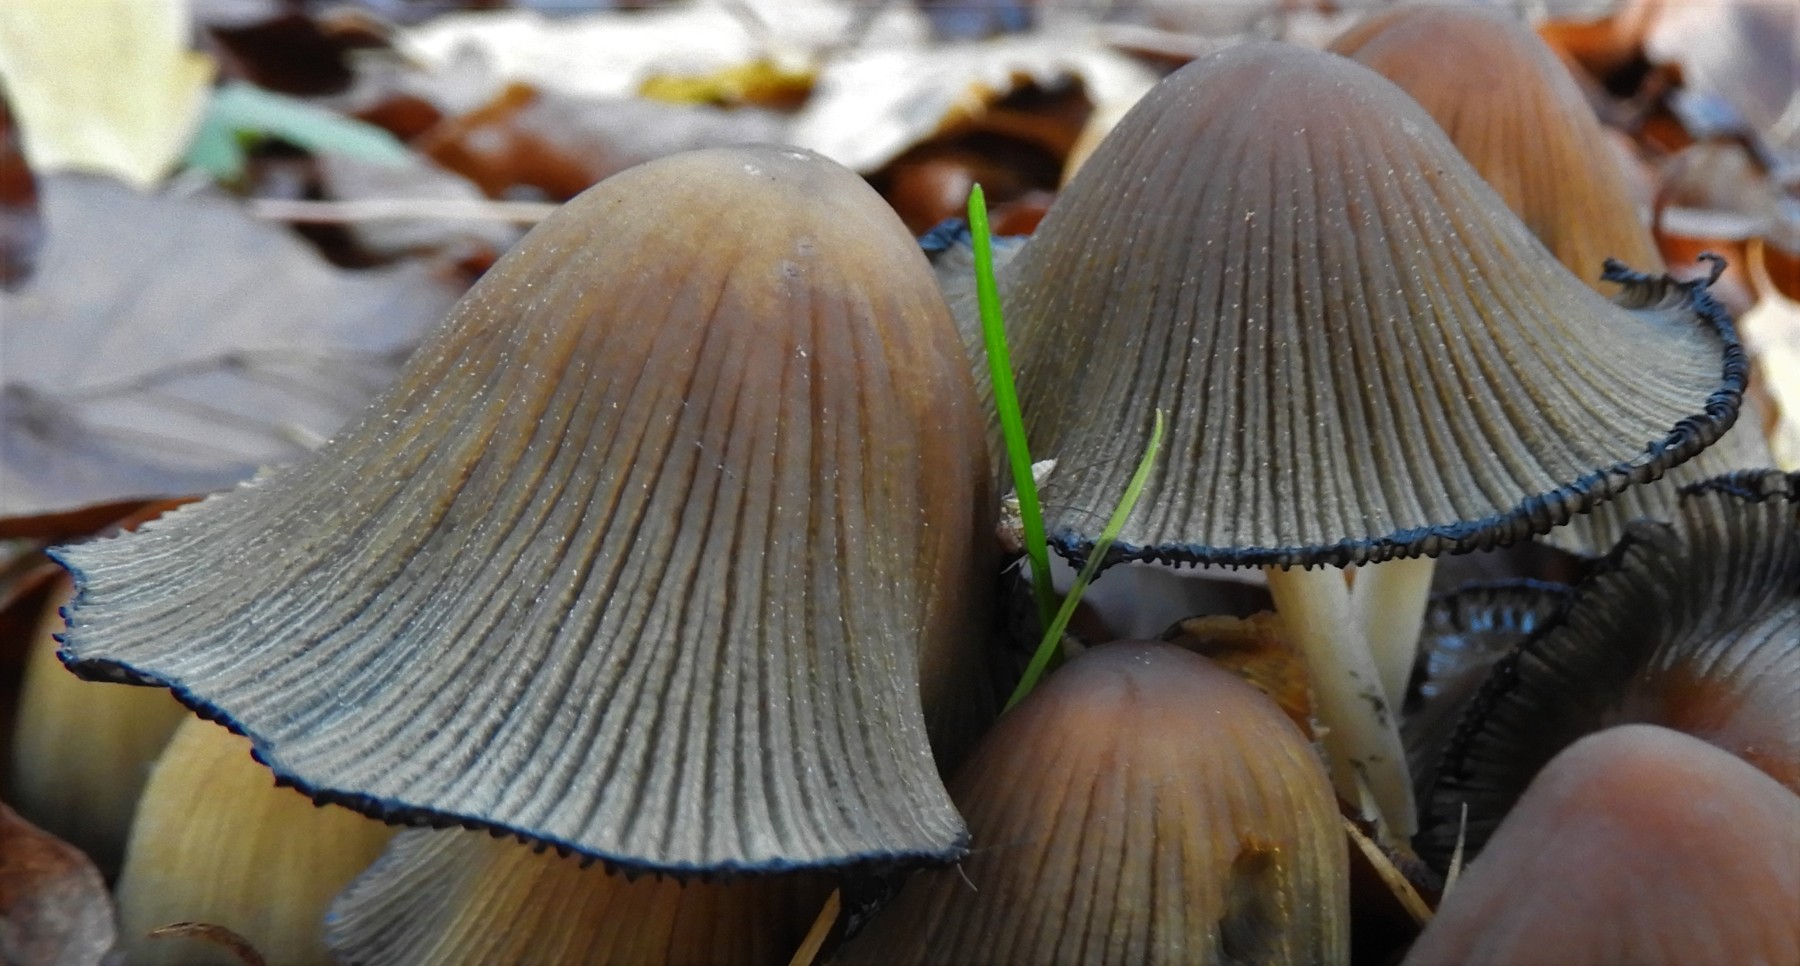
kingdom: Fungi
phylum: Basidiomycota
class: Agaricomycetes
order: Agaricales
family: Psathyrellaceae
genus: Coprinellus
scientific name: Coprinellus micaceus
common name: glimmer-blækhat
